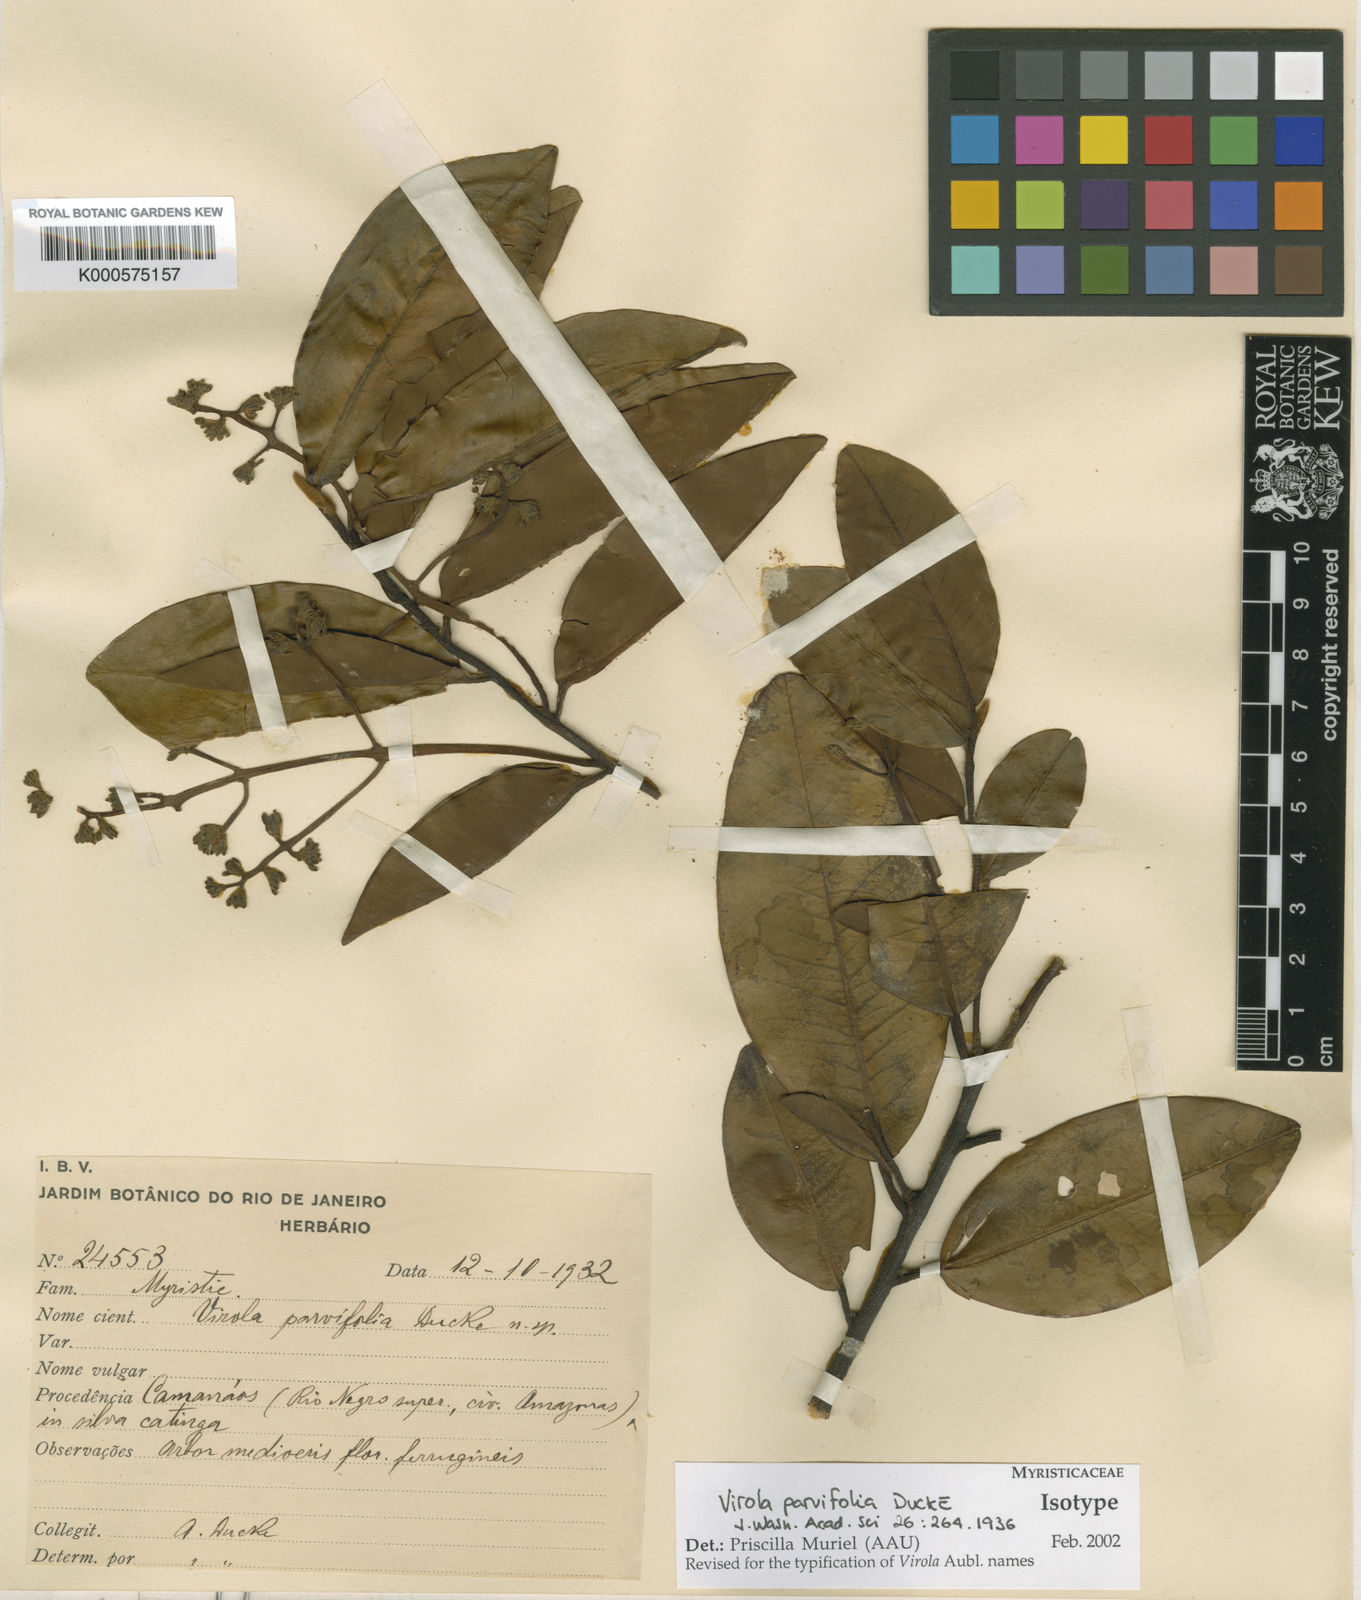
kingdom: Plantae
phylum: Tracheophyta
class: Magnoliopsida
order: Magnoliales
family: Myristicaceae
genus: Virola
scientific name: Virola parvifolia
